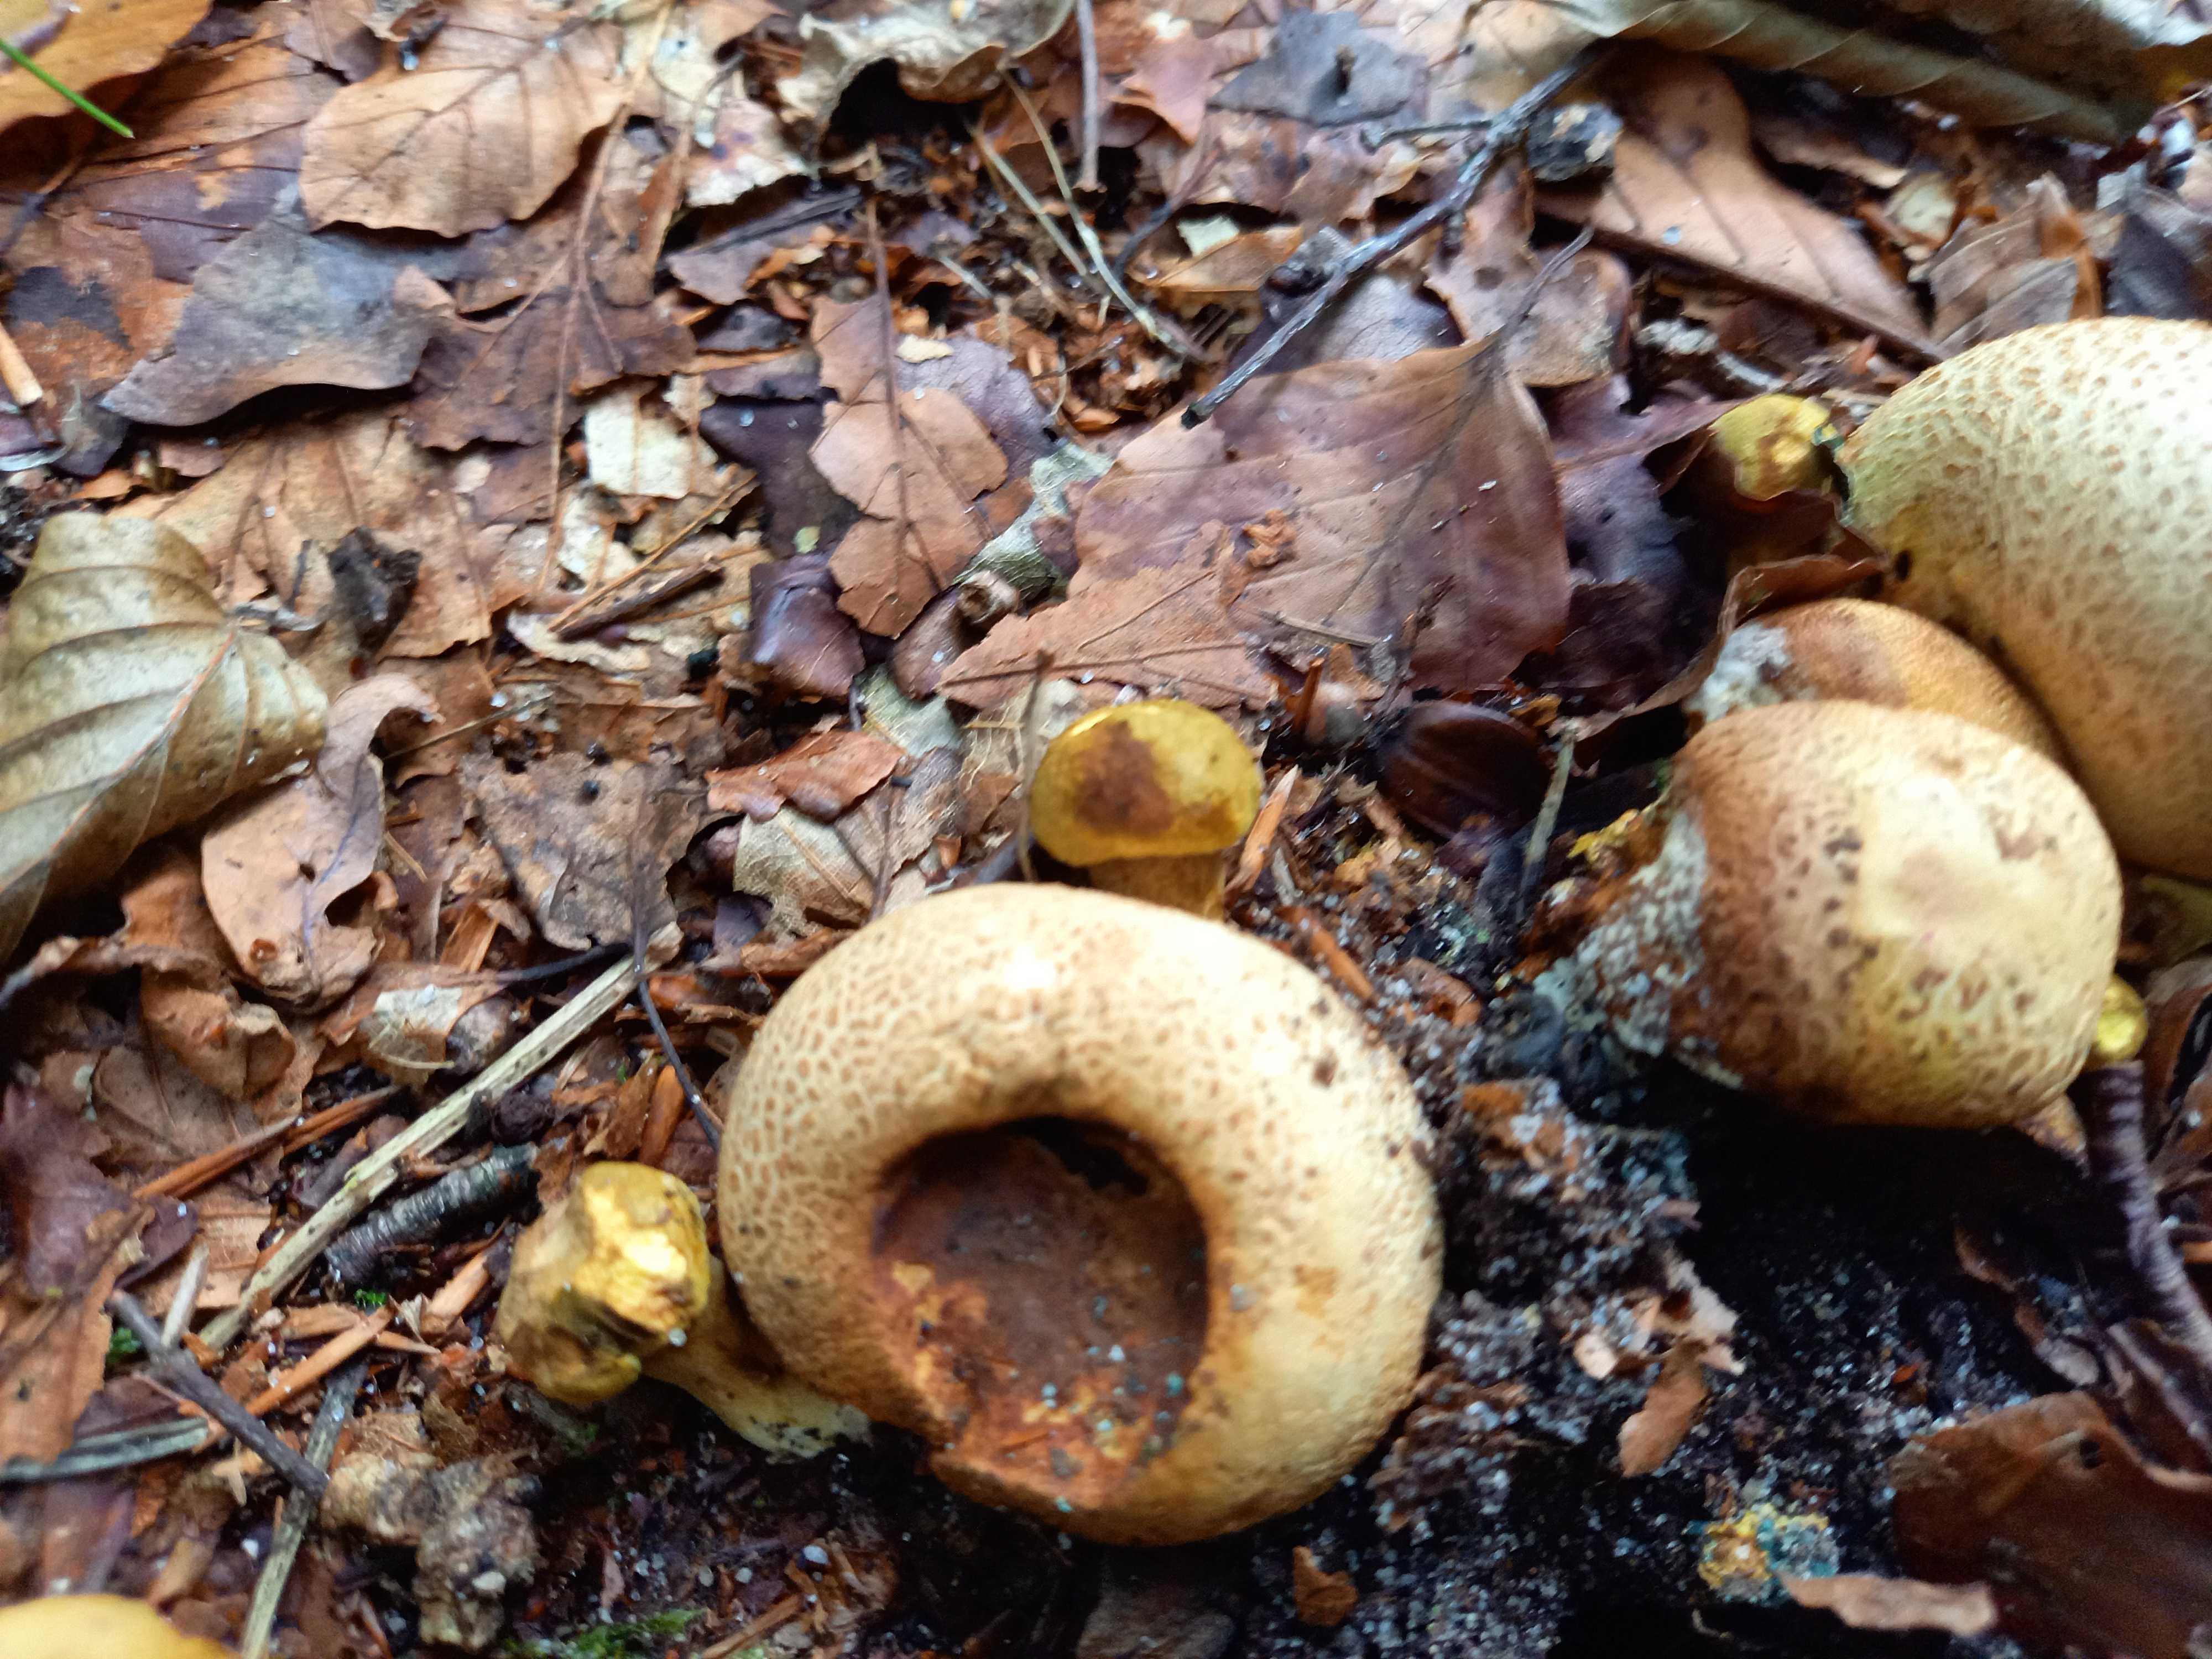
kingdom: Fungi
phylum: Basidiomycota
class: Agaricomycetes
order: Boletales
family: Boletaceae
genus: Pseudoboletus
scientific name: Pseudoboletus parasiticus
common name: snyltende rørhat
